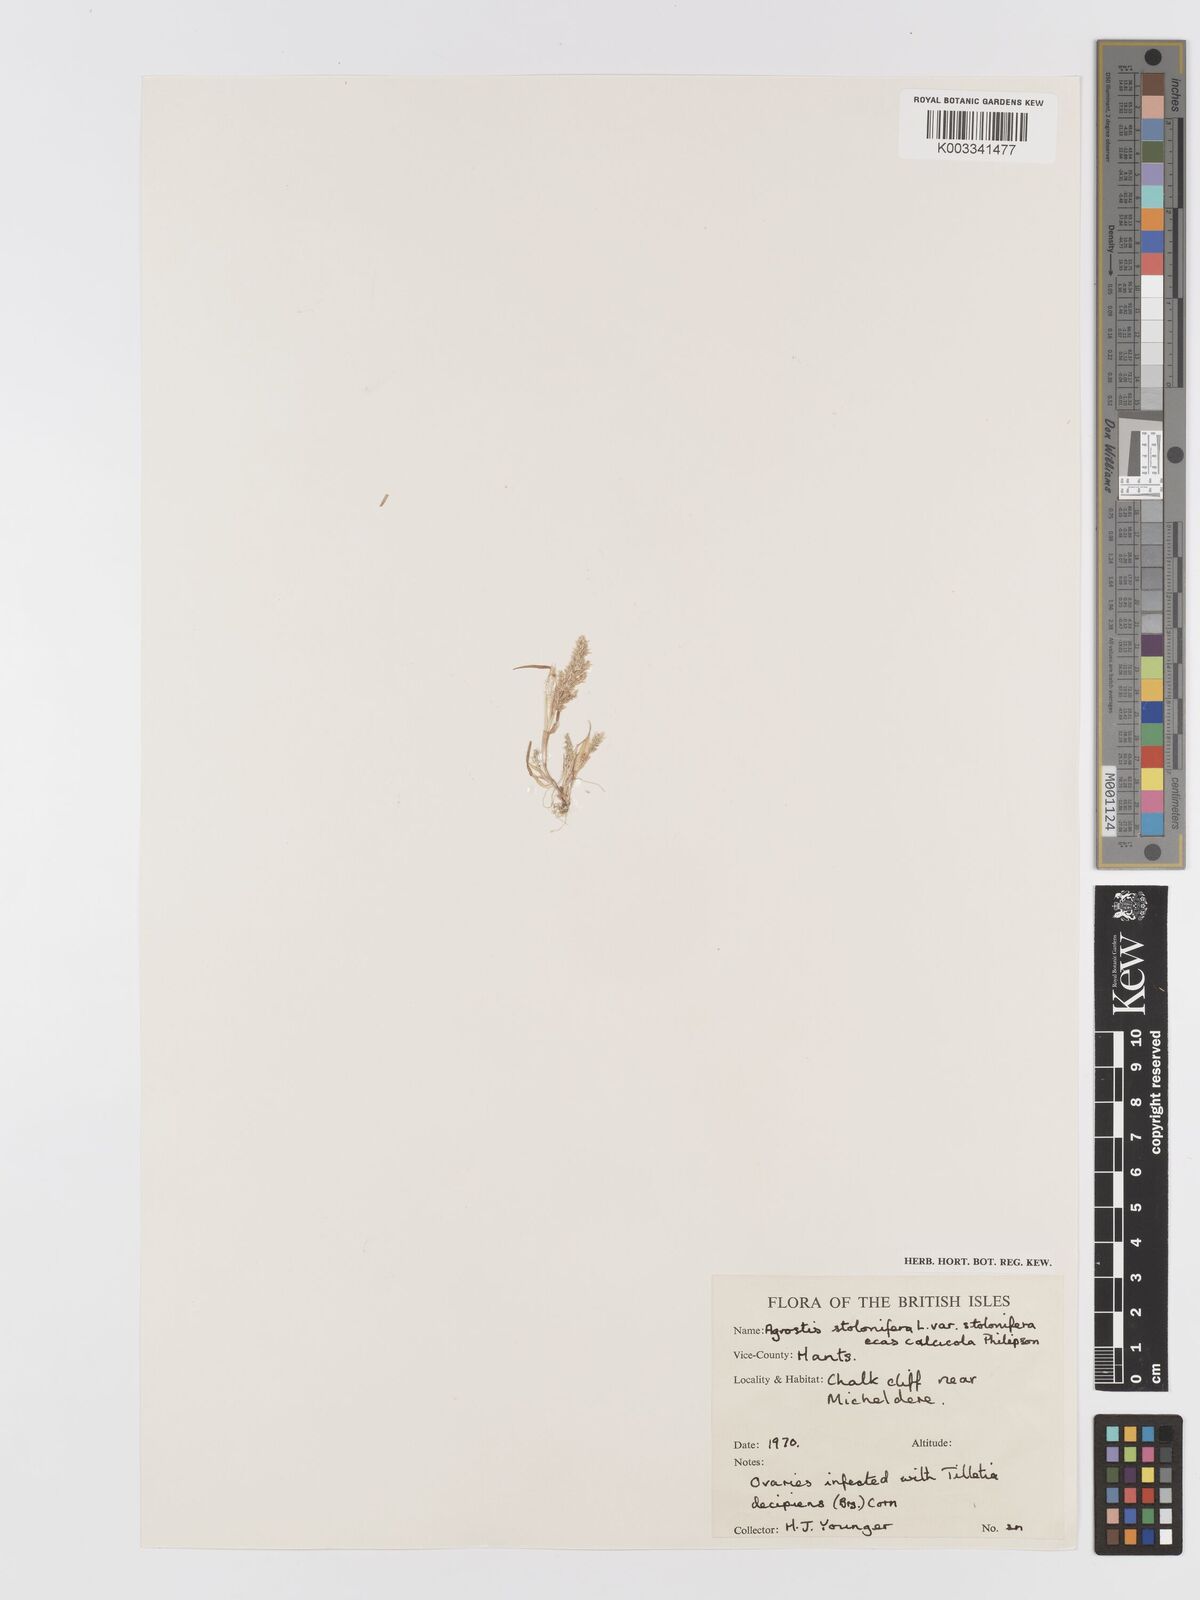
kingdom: Plantae
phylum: Tracheophyta
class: Liliopsida
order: Poales
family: Poaceae
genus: Agrostis
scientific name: Agrostis stolonifera
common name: Creeping bentgrass
